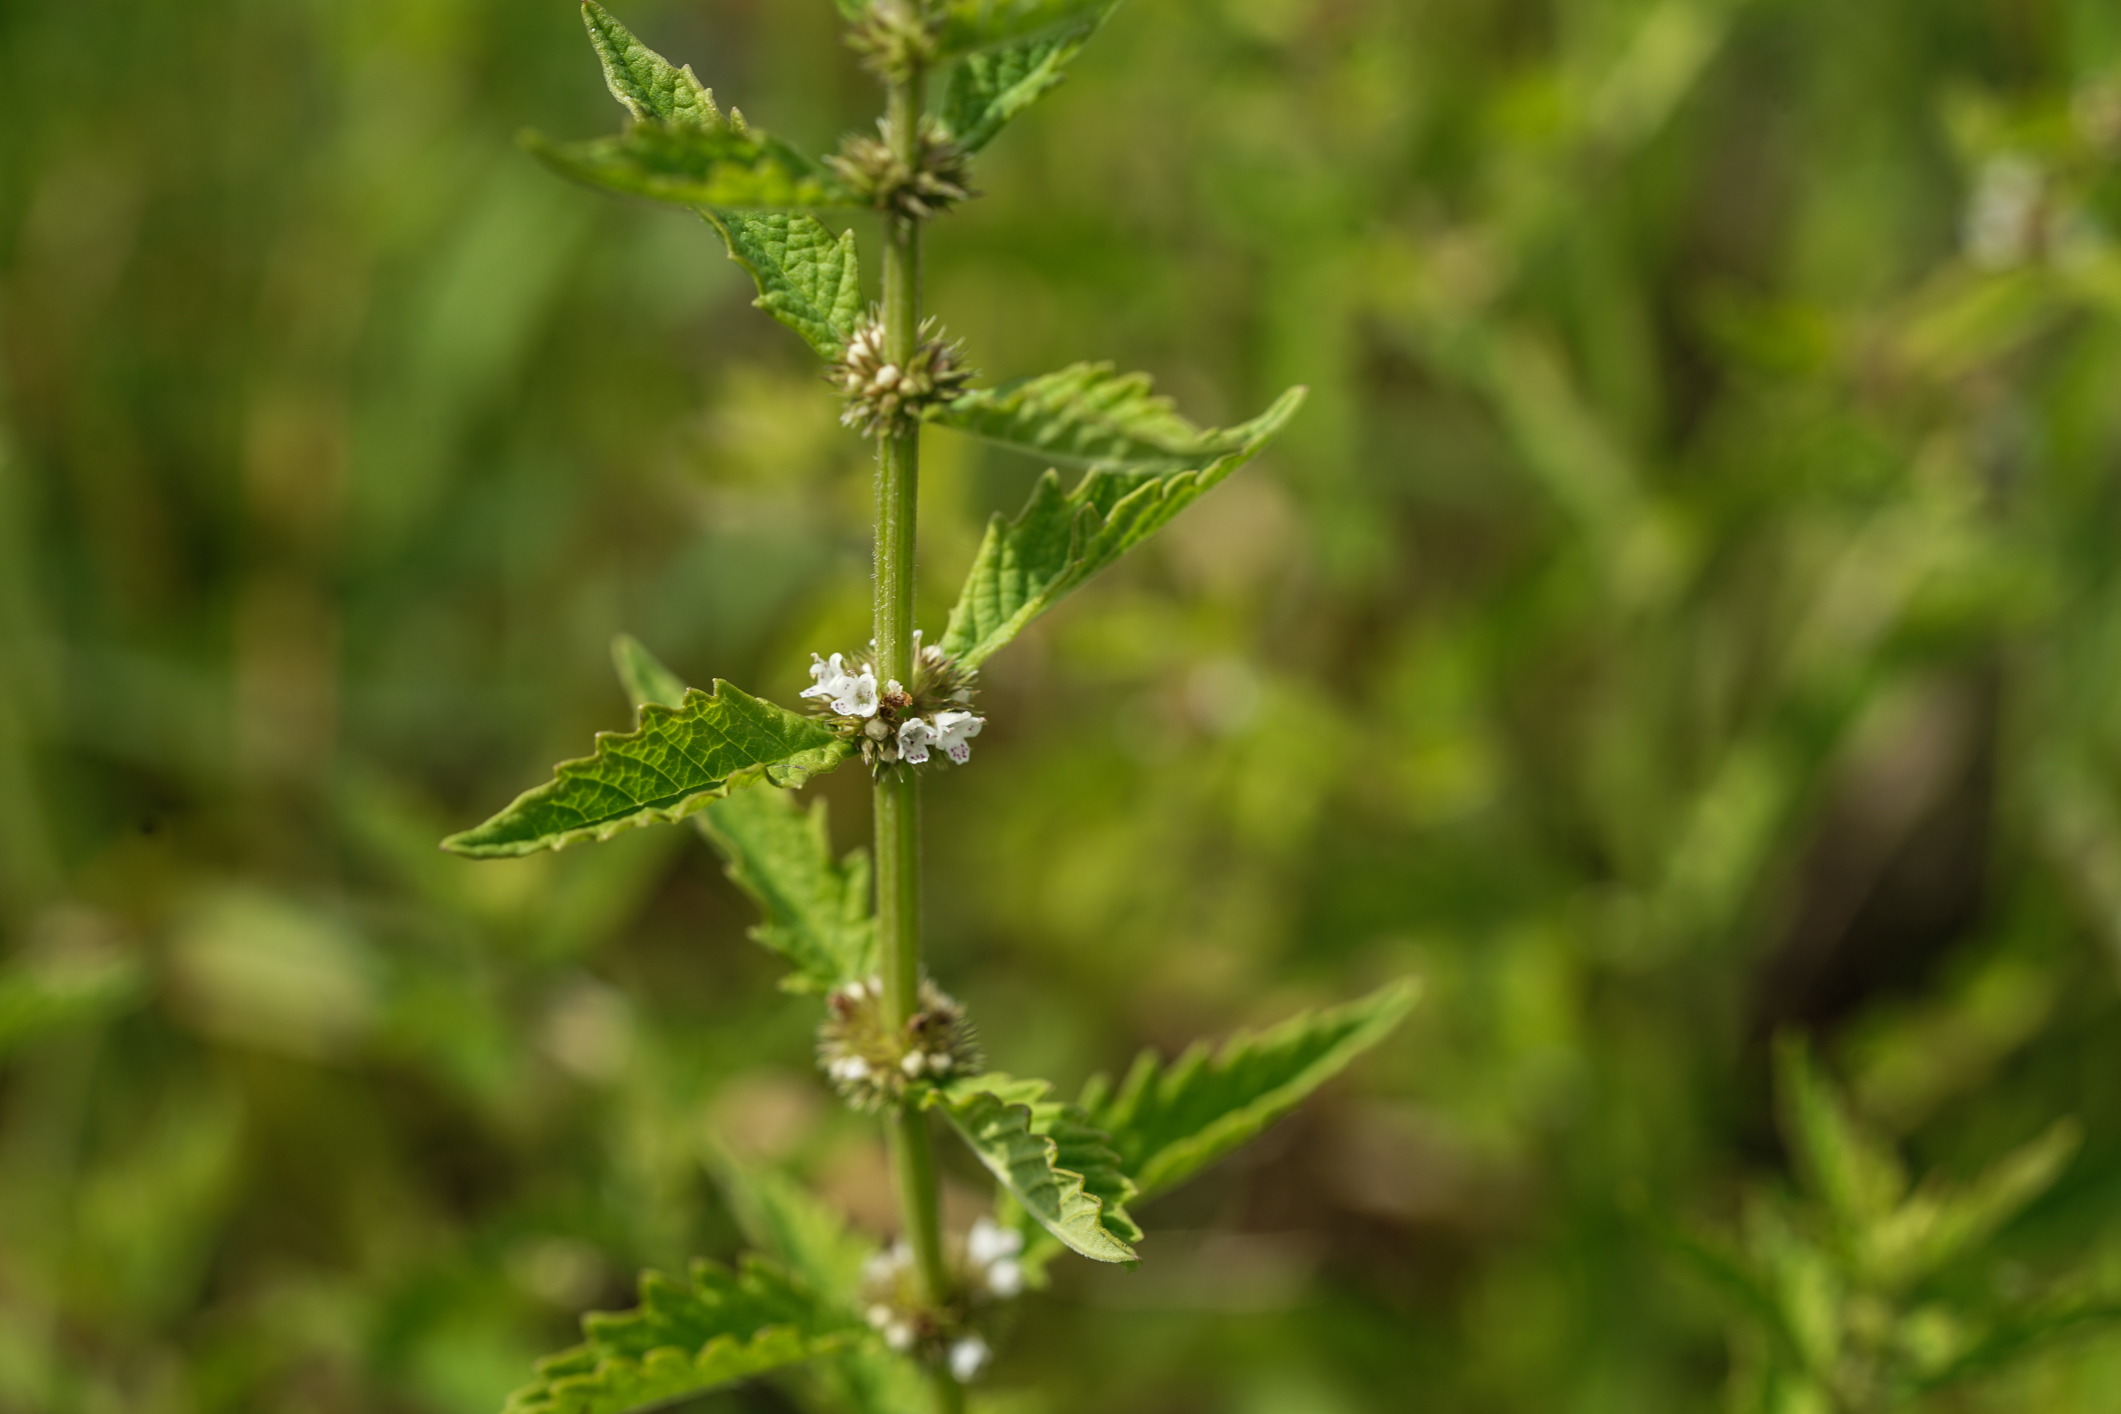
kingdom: Plantae
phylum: Tracheophyta
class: Magnoliopsida
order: Lamiales
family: Lamiaceae
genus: Lycopus
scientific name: Lycopus europaeus
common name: European bugleweed
